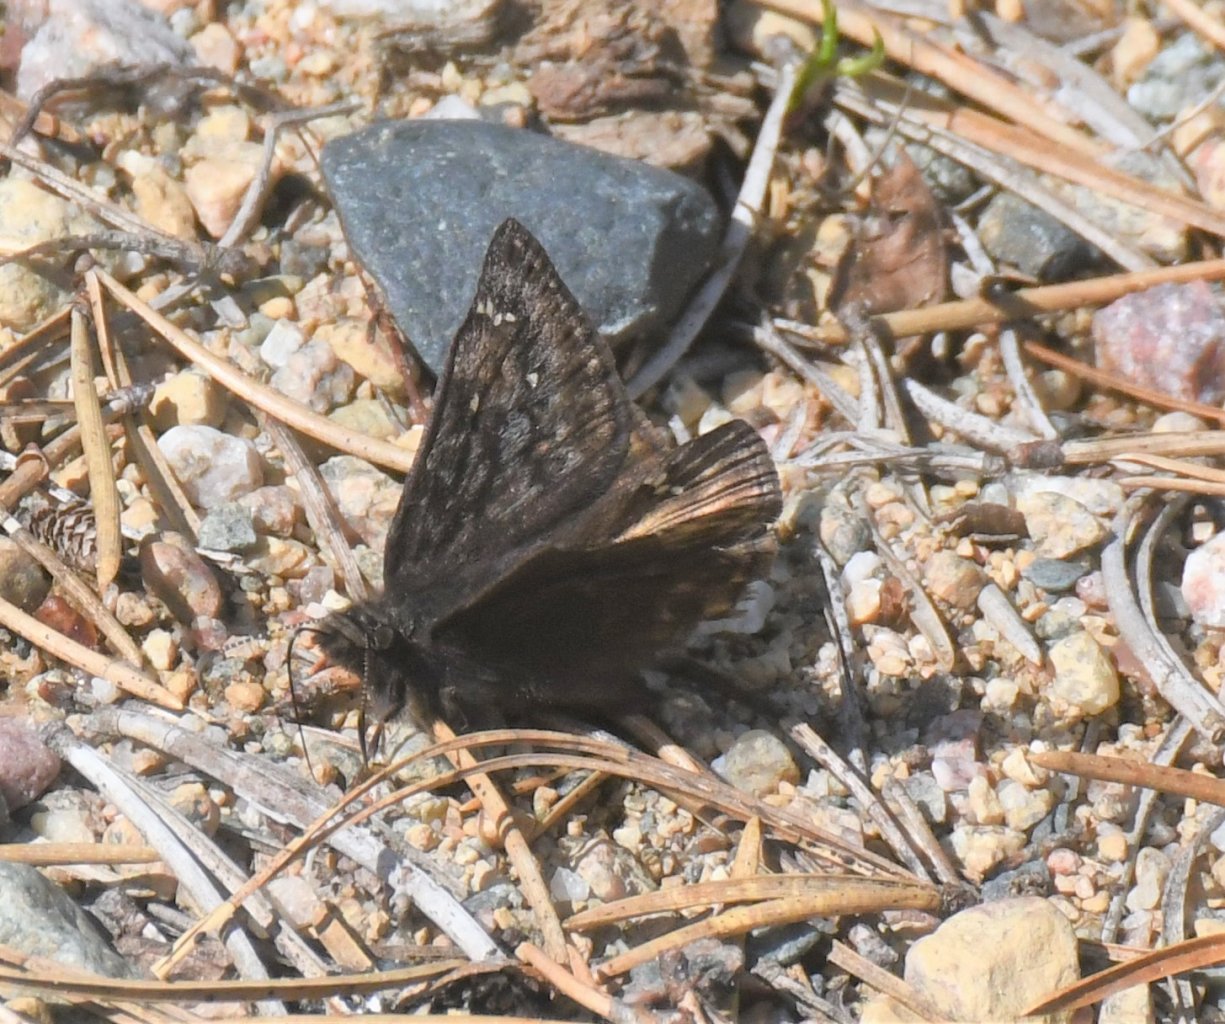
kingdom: Animalia
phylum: Arthropoda
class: Insecta
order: Lepidoptera
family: Hesperiidae
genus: Gesta
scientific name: Gesta
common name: Juvenal's Duskywing
